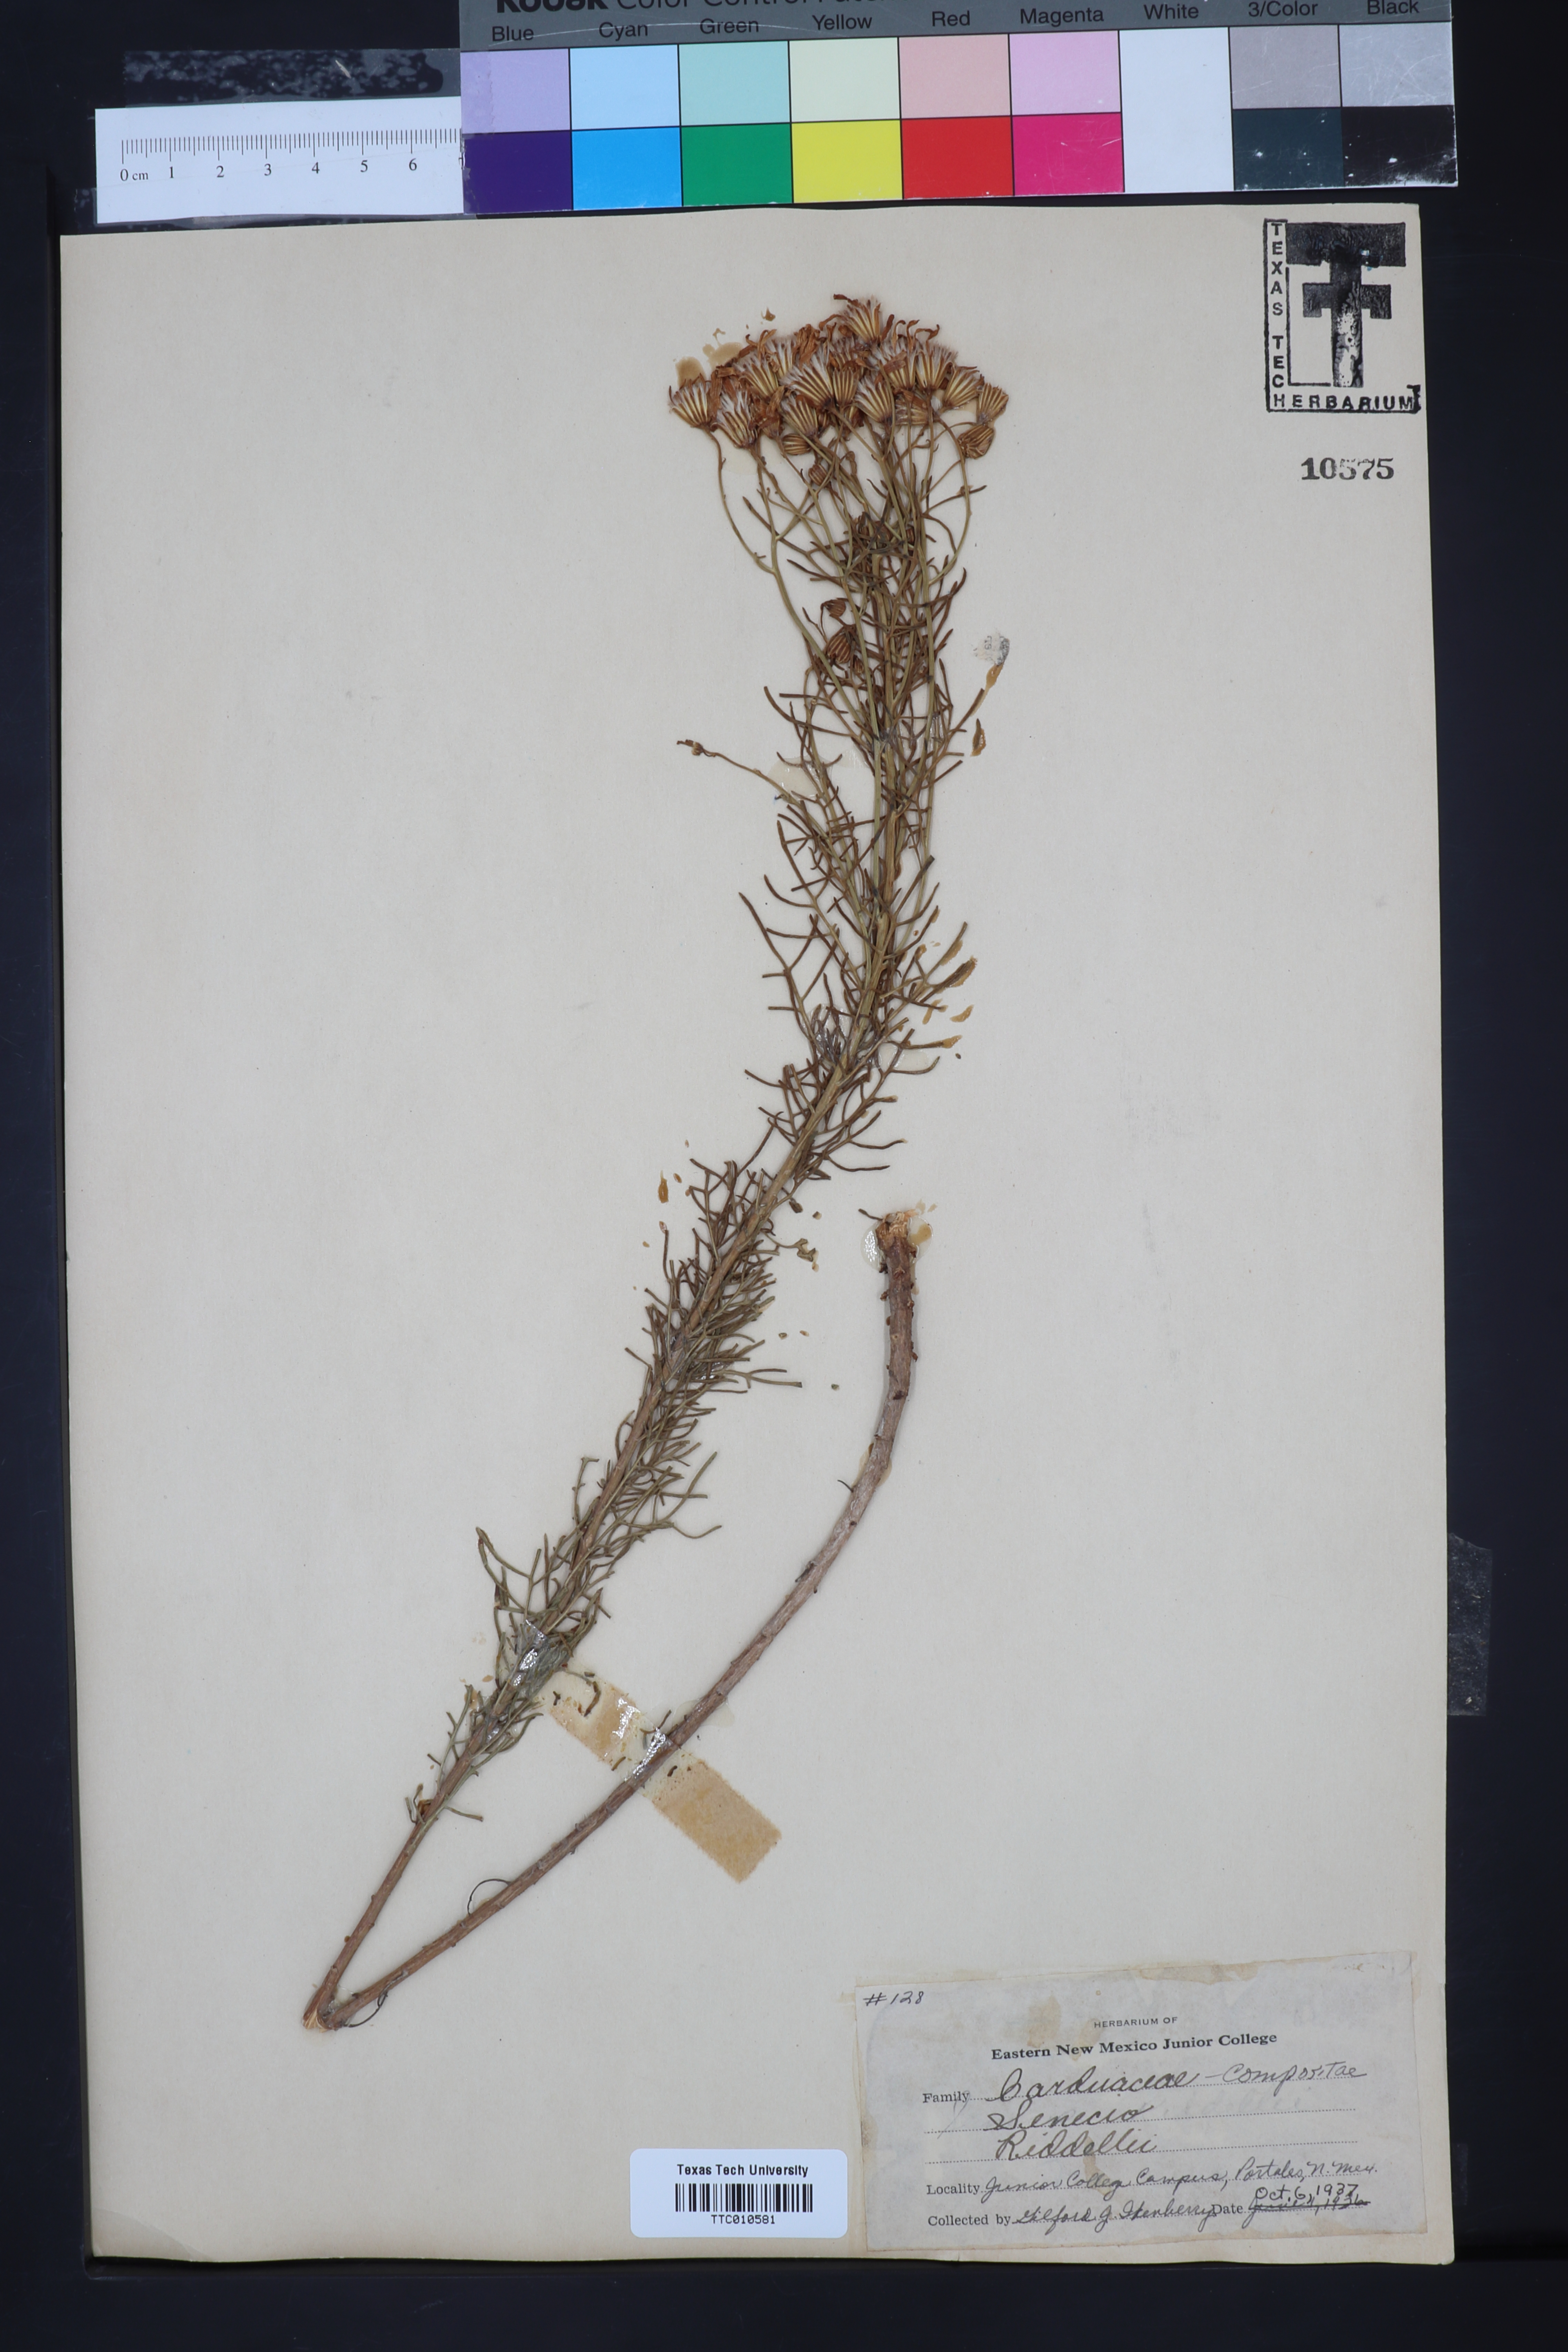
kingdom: Plantae
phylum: Tracheophyta
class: Magnoliopsida
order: Asterales
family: Asteraceae
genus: Senecio
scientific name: Senecio riddellii
